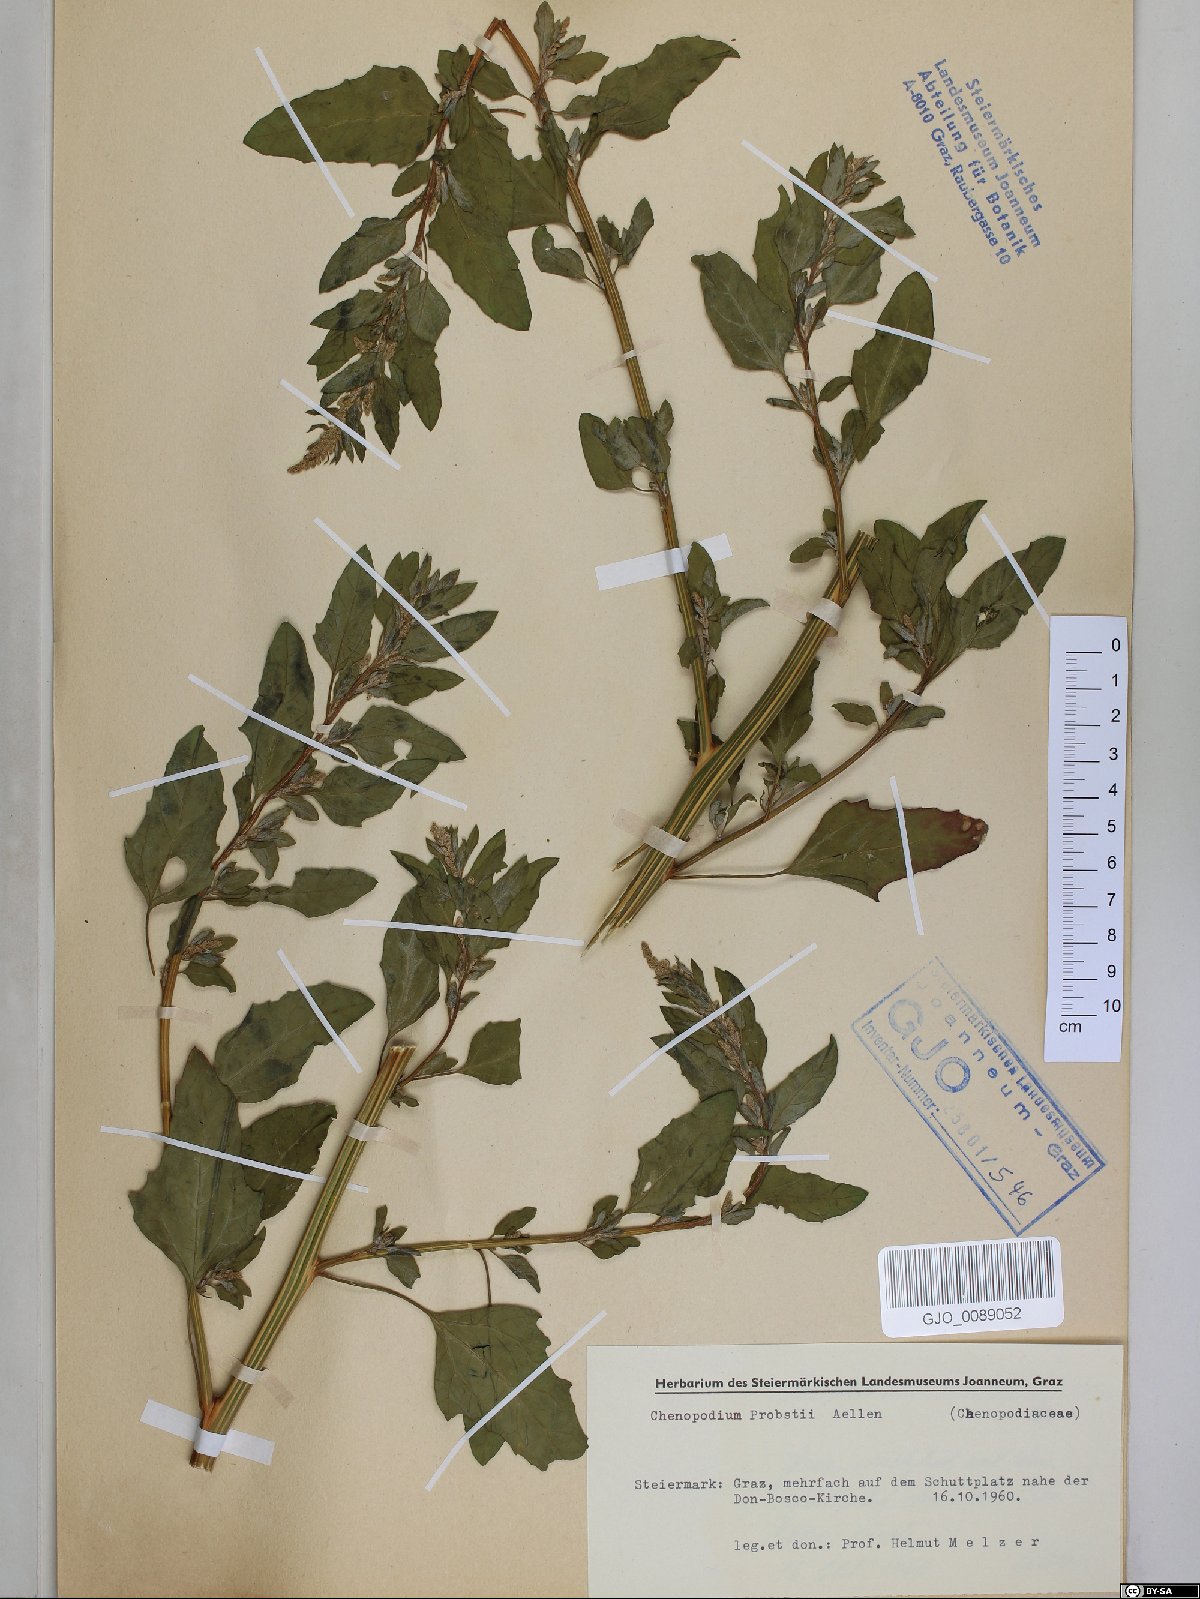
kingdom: Plantae
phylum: Tracheophyta
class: Magnoliopsida
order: Caryophyllales
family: Amaranthaceae
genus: Chenopodium
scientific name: Chenopodium probstii
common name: Probst's goosefoot
